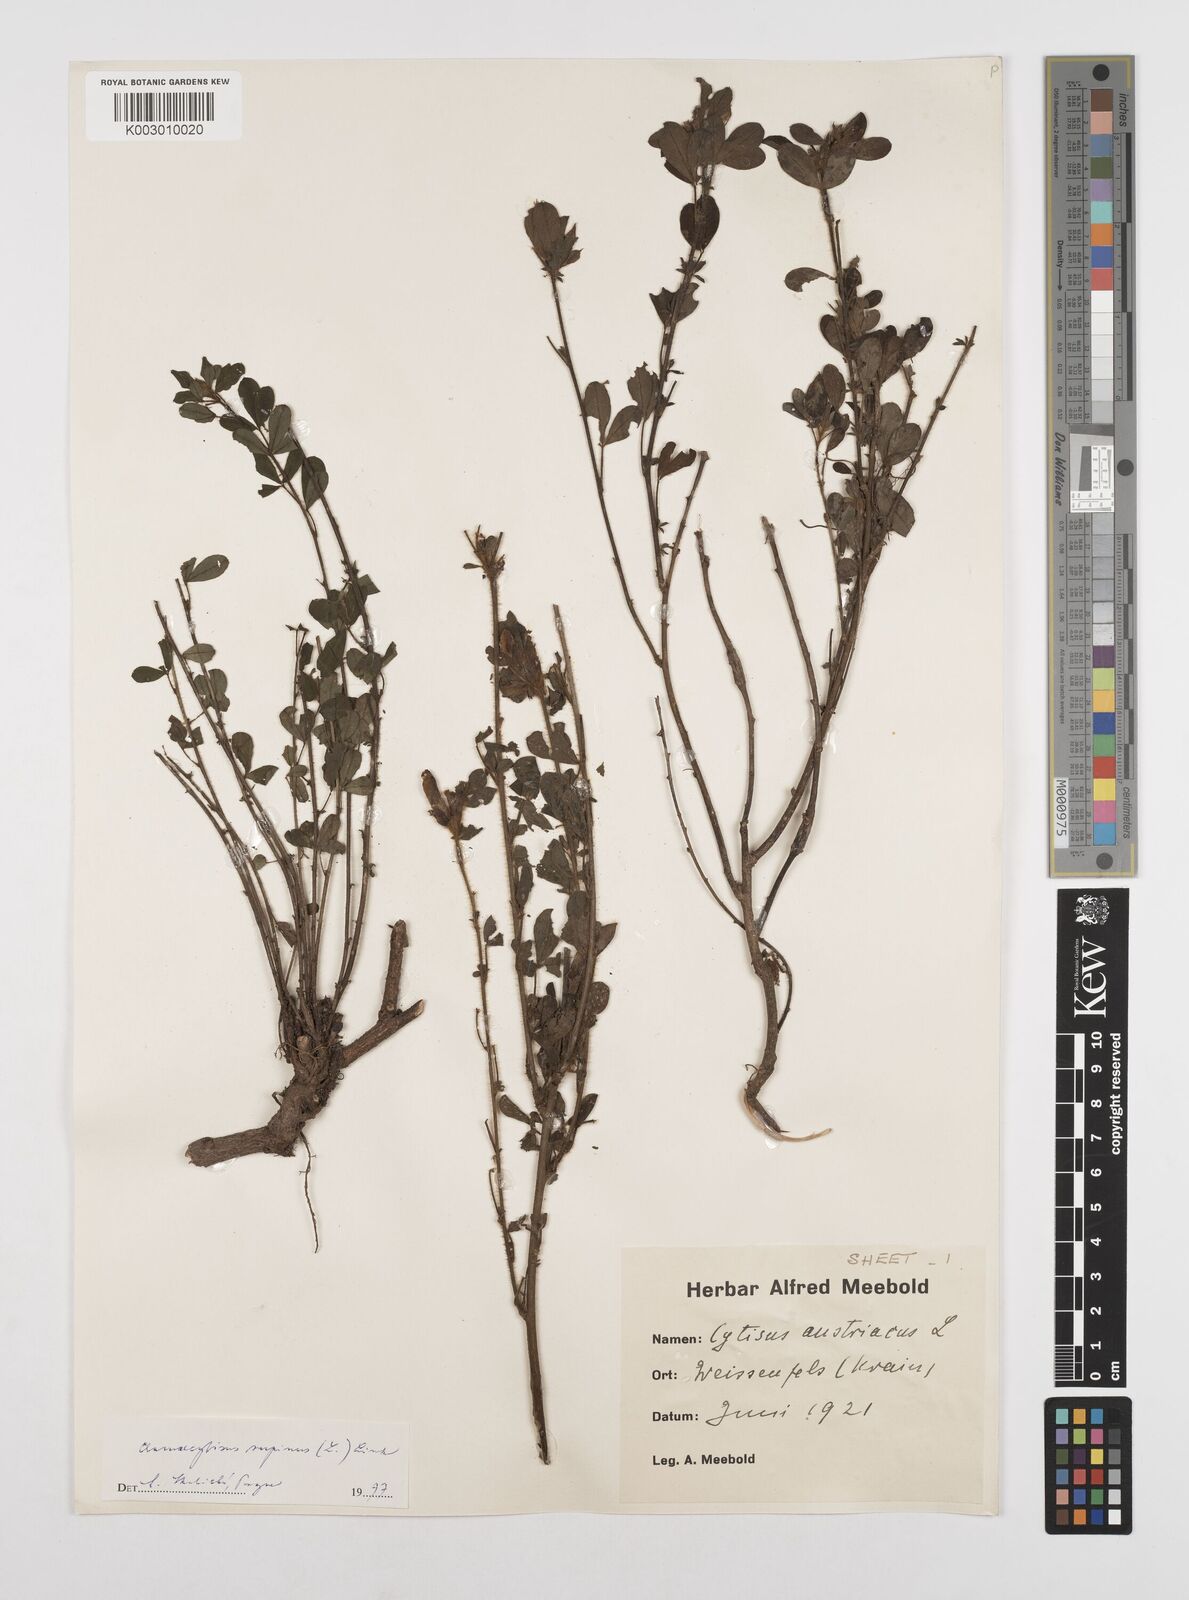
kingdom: Plantae
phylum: Tracheophyta
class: Magnoliopsida
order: Fabales
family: Fabaceae
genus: Chamaecytisus
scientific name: Chamaecytisus hirsutus
